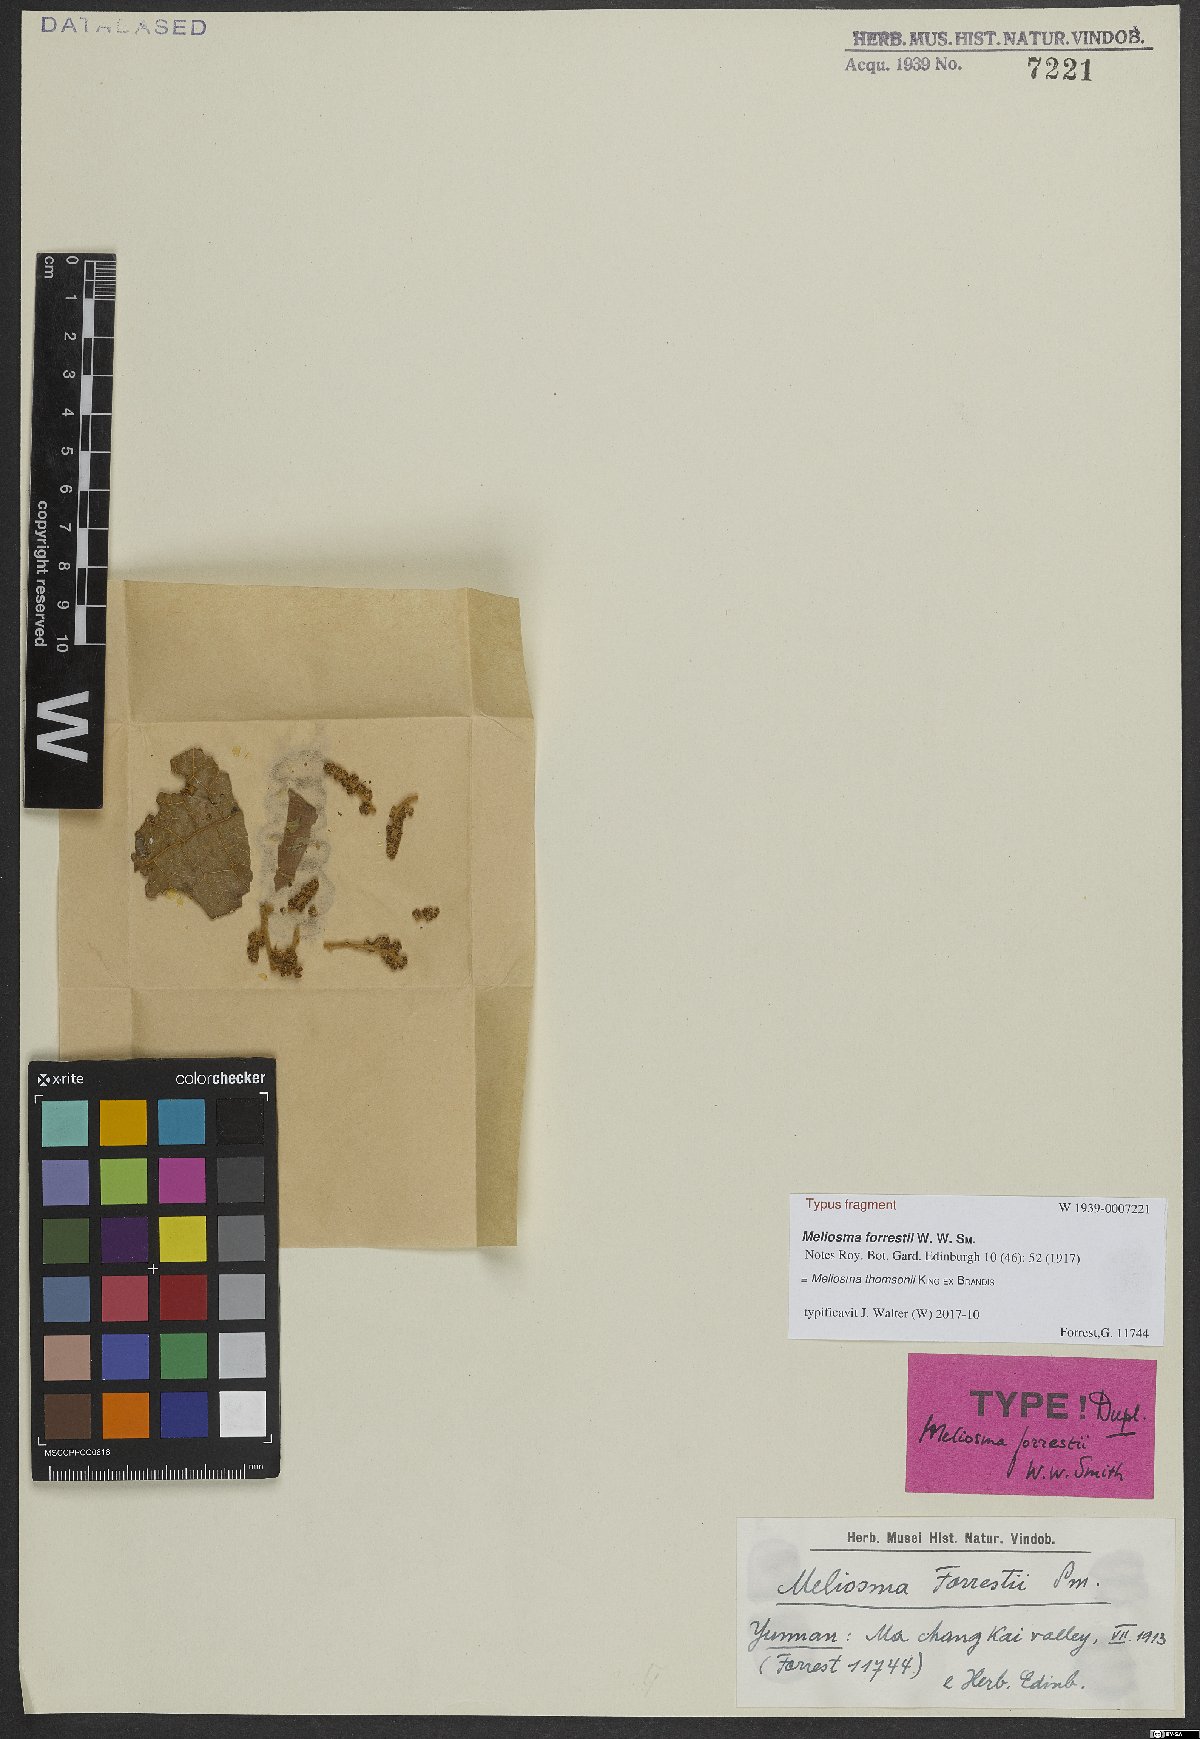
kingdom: Plantae
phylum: Tracheophyta
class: Magnoliopsida
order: Proteales
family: Sabiaceae
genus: Meliosma
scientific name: Meliosma thomsonii
